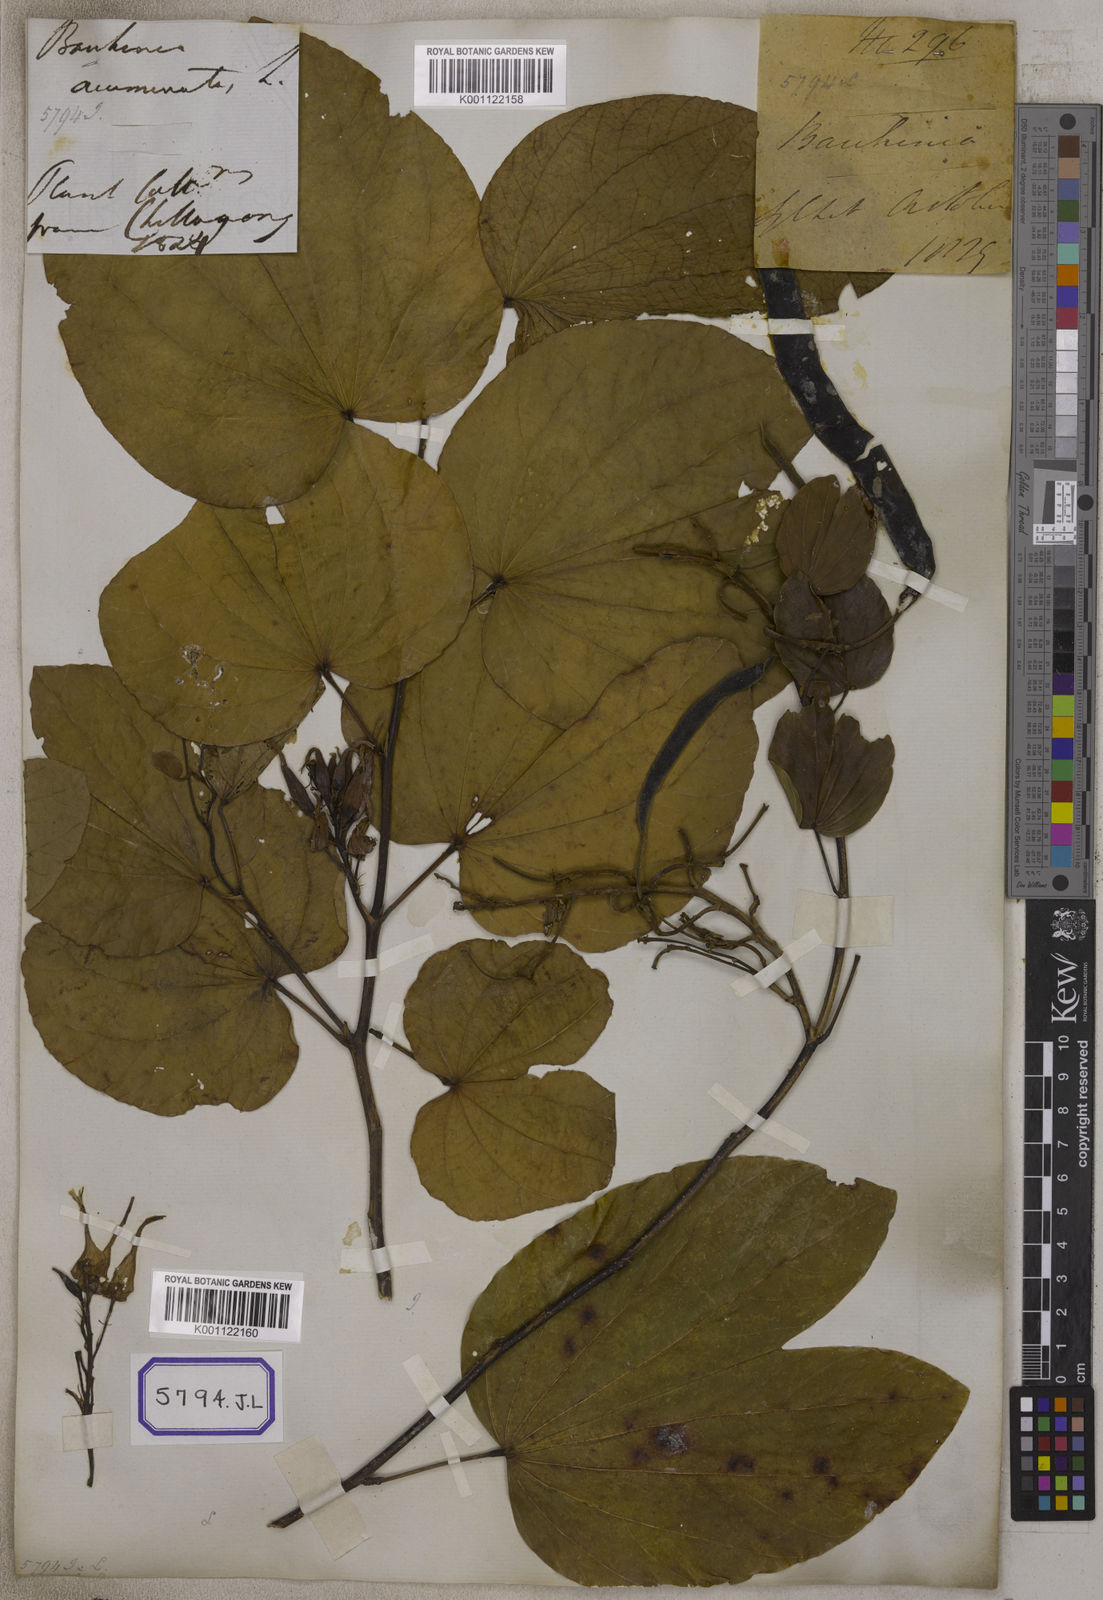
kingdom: Plantae
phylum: Tracheophyta
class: Magnoliopsida
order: Fabales
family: Fabaceae
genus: Bauhinia
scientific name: Bauhinia acuminata
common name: Dwarf white bauhinia
